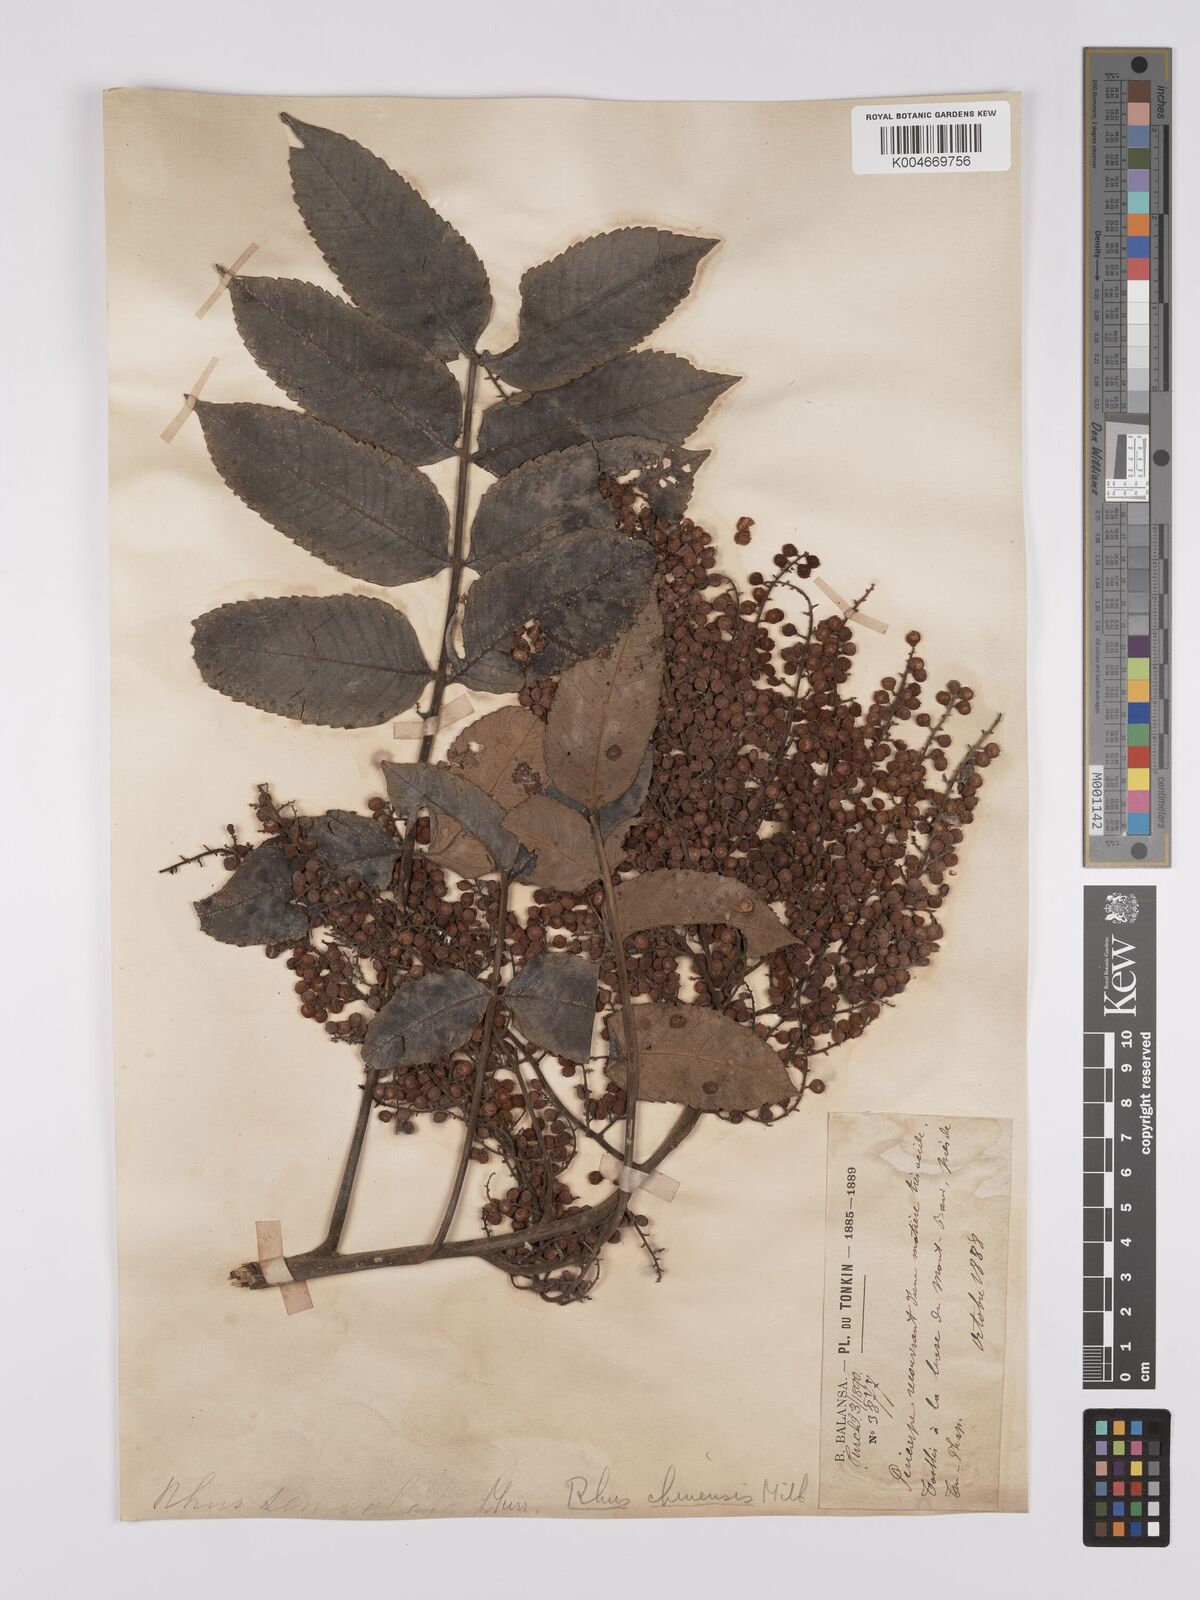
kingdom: Plantae
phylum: Tracheophyta
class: Magnoliopsida
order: Sapindales
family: Anacardiaceae
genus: Rhus
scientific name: Rhus chinensis
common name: Chinese gall
